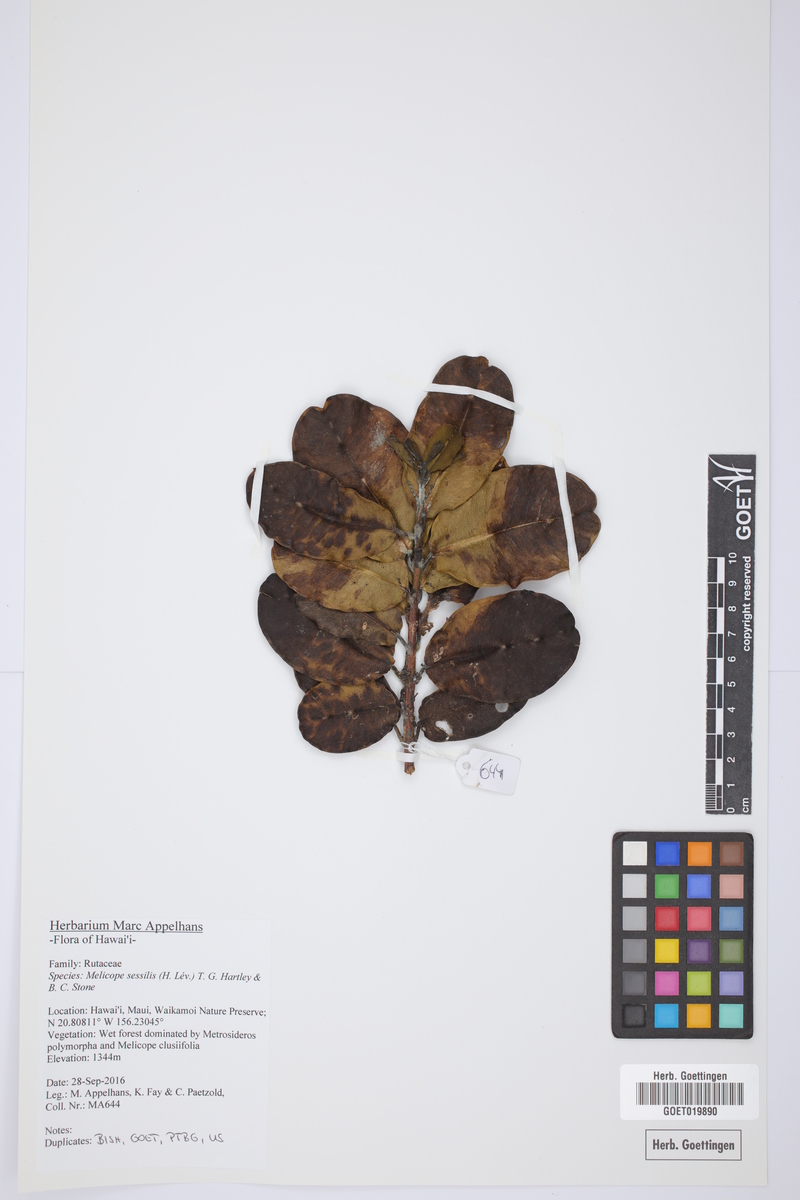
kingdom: Plantae
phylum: Tracheophyta
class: Magnoliopsida
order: Sapindales
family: Rutaceae
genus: Melicope
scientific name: Melicope sessilis
